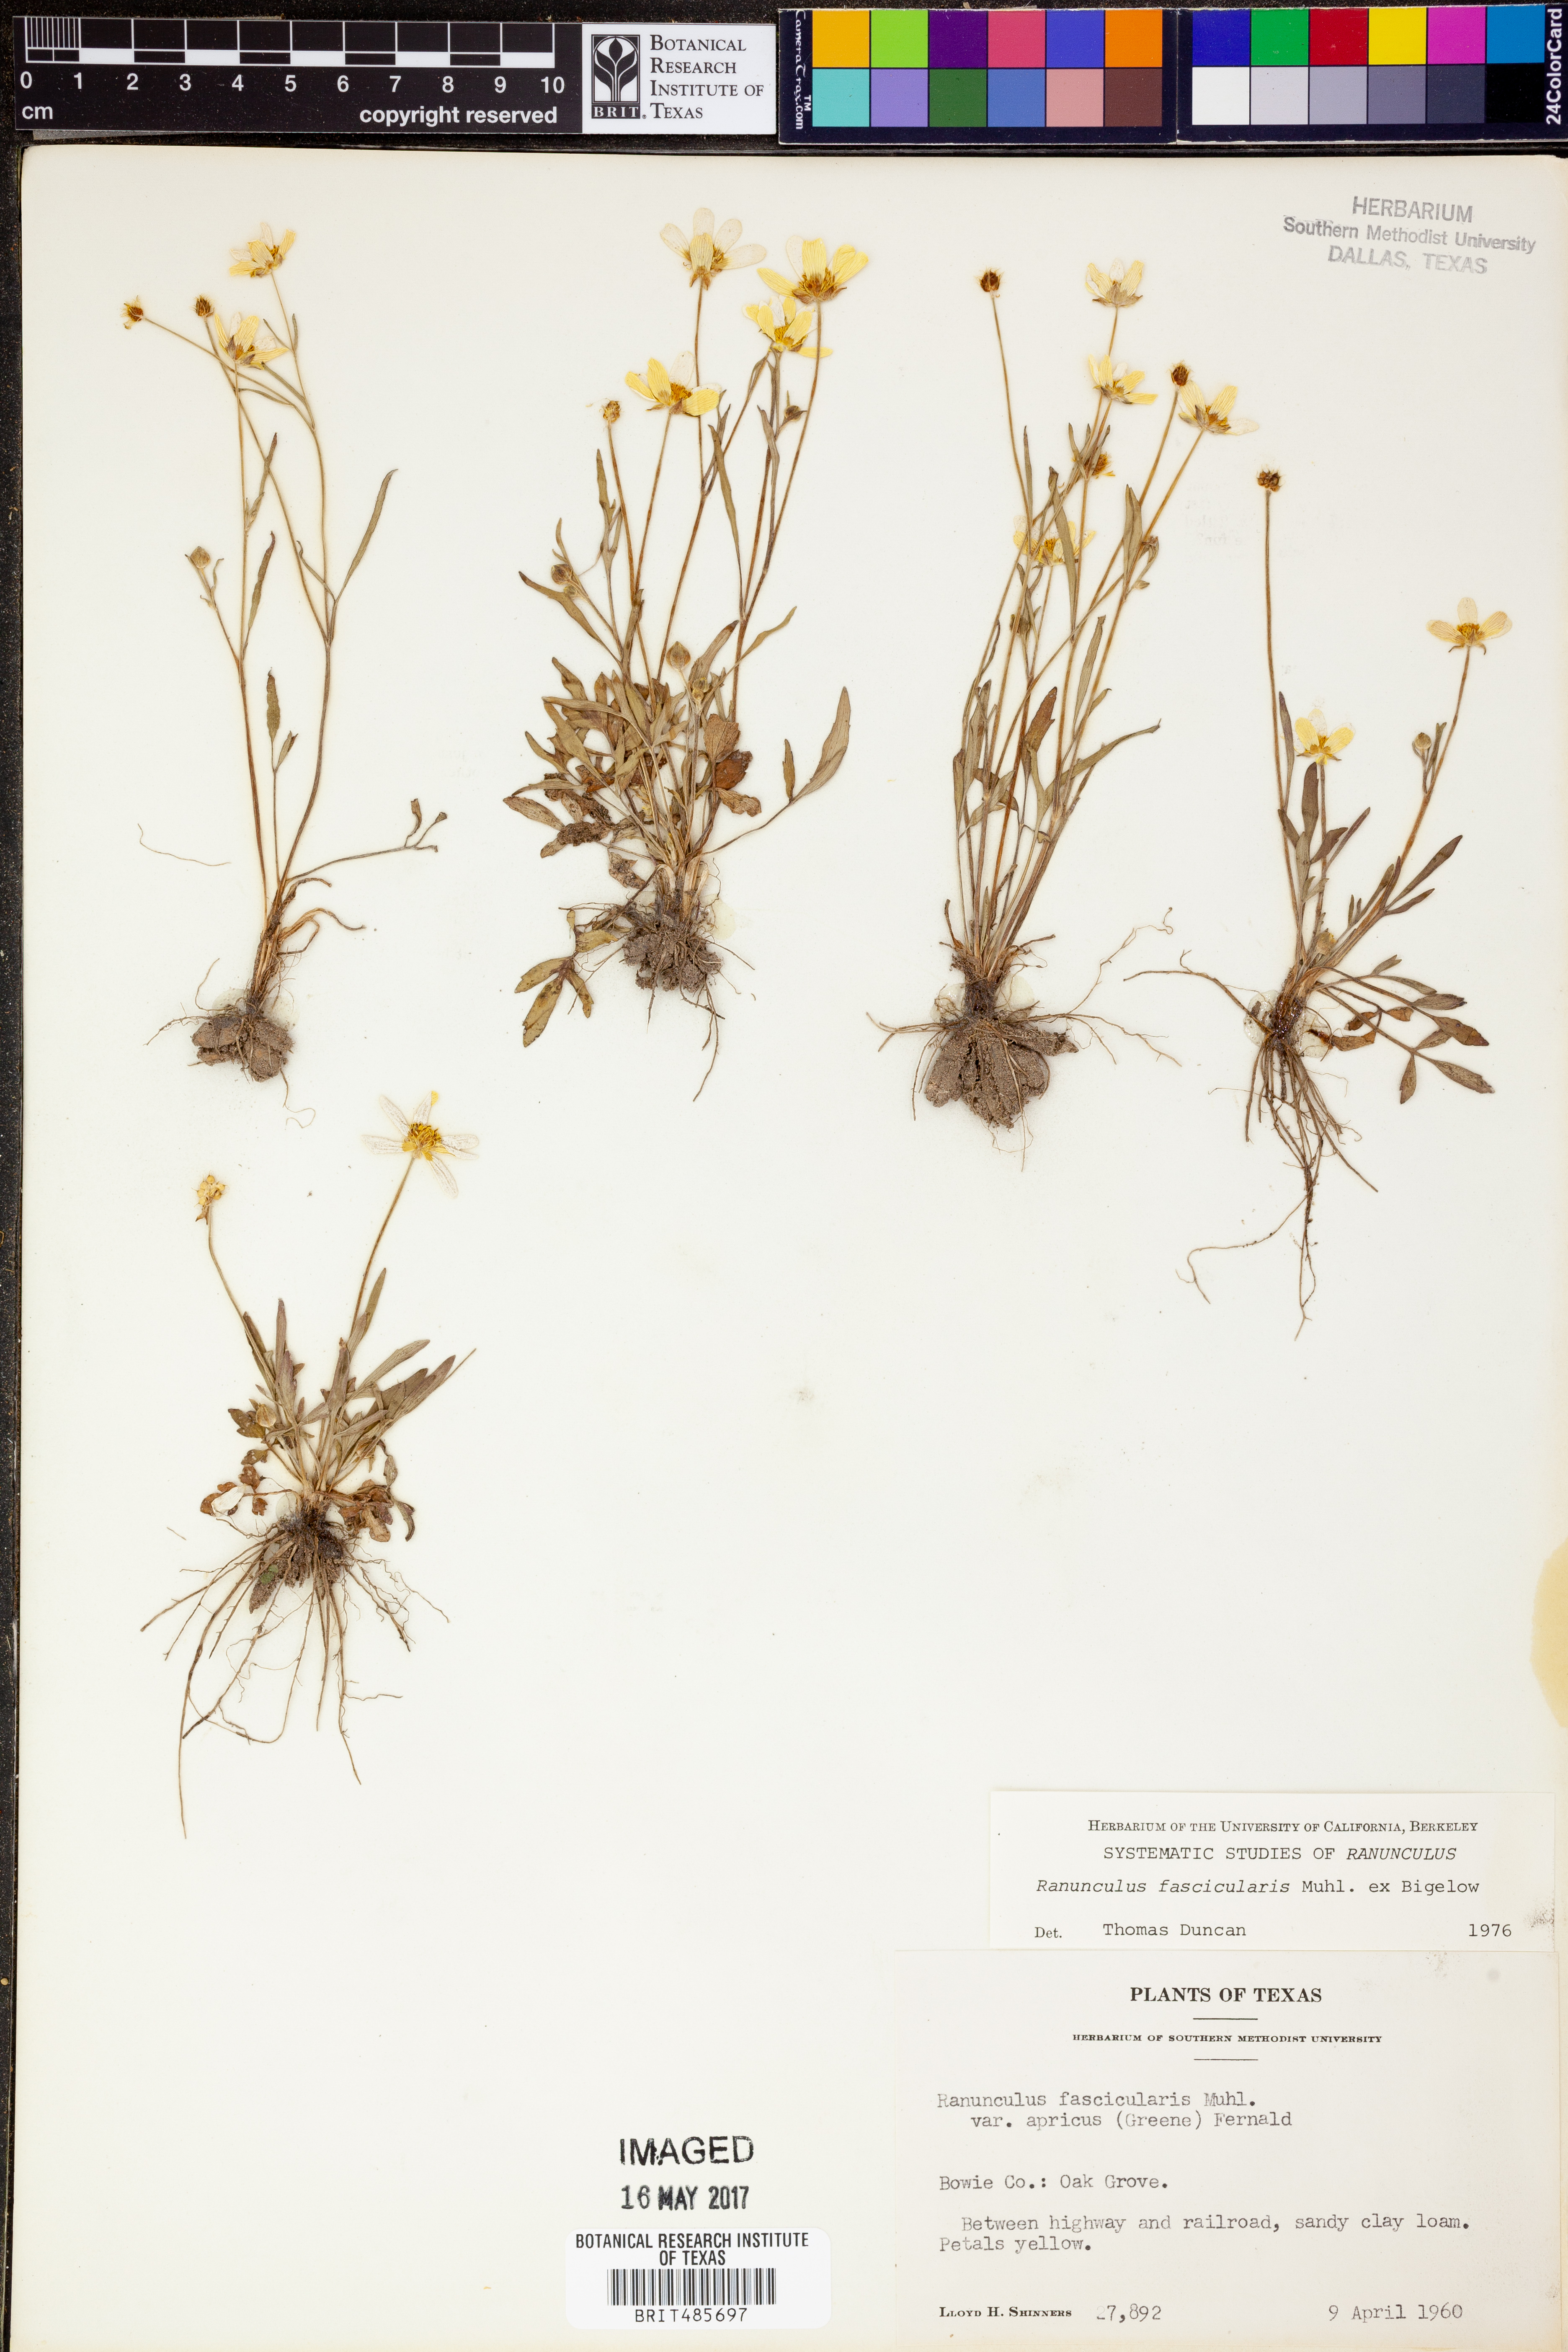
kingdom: Plantae
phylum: Tracheophyta
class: Magnoliopsida
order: Ranunculales
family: Ranunculaceae
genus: Ranunculus
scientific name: Ranunculus fascicularis
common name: Early buttercup
